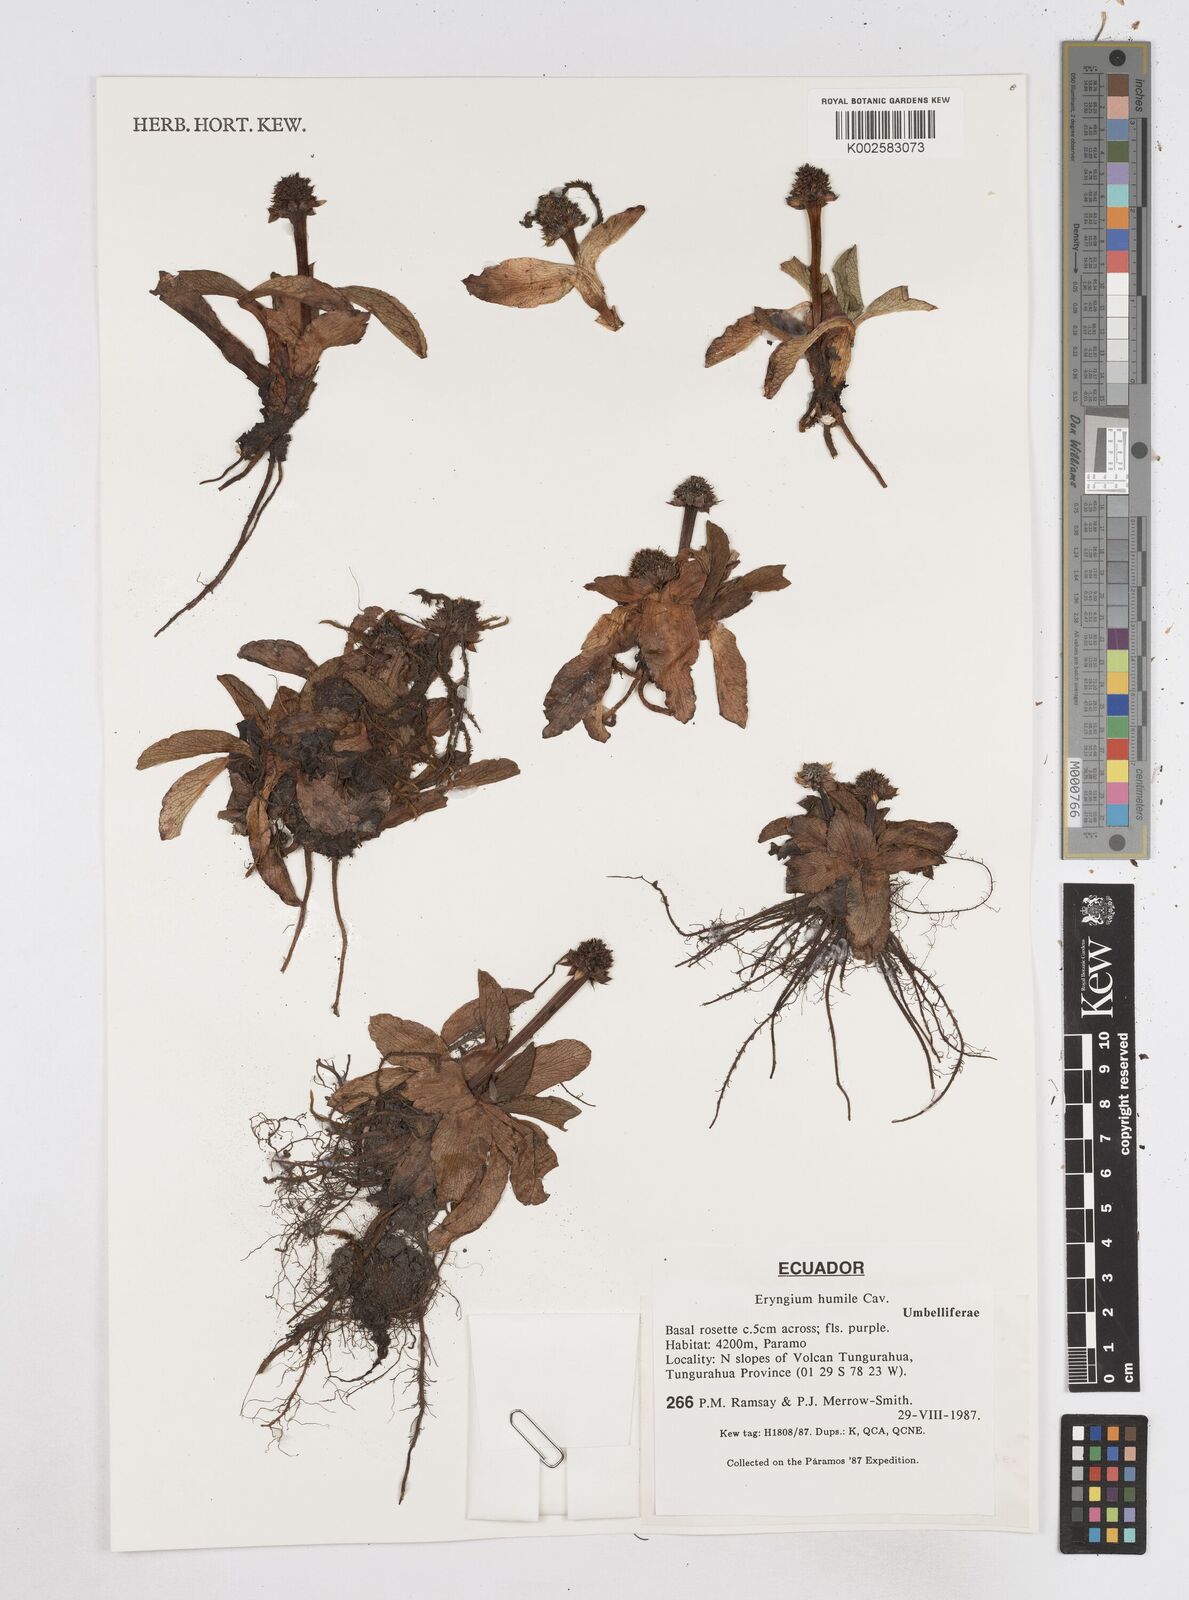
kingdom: Plantae
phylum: Tracheophyta
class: Magnoliopsida
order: Apiales
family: Apiaceae
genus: Eryngium
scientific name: Eryngium humile
